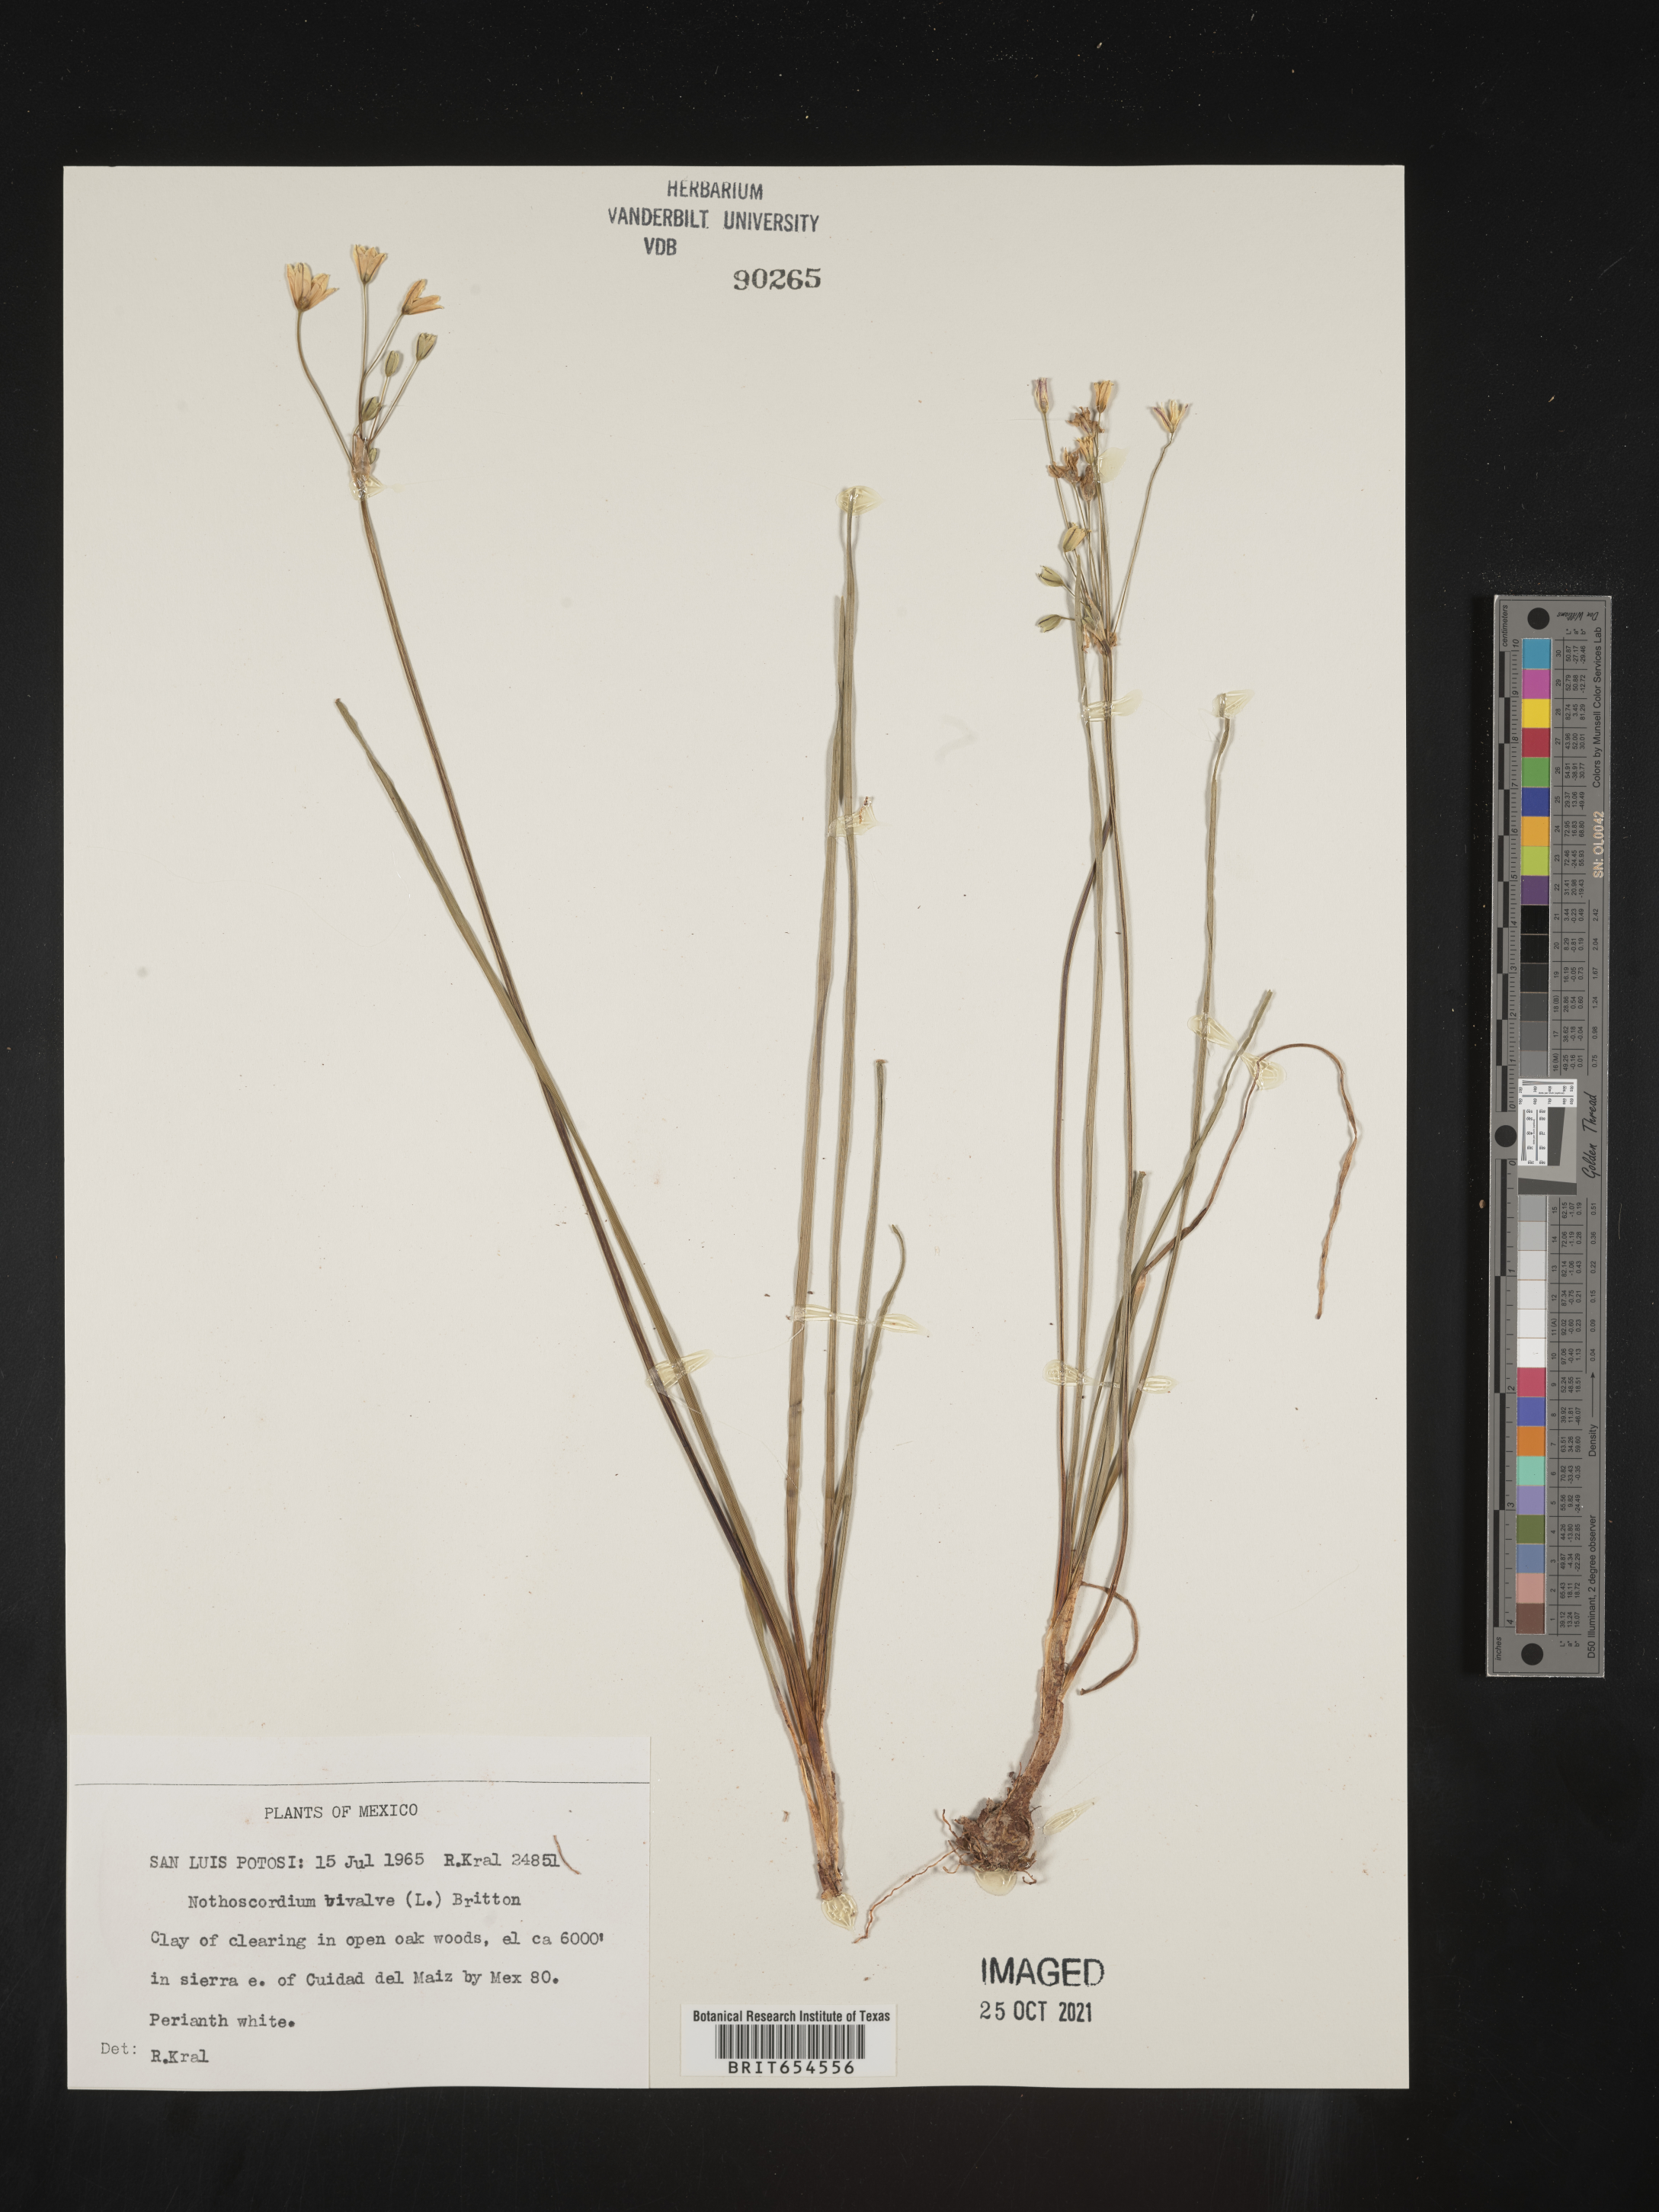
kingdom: Plantae
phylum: Tracheophyta
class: Liliopsida
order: Asparagales
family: Amaryllidaceae
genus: Nothoscordum
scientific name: Nothoscordum
